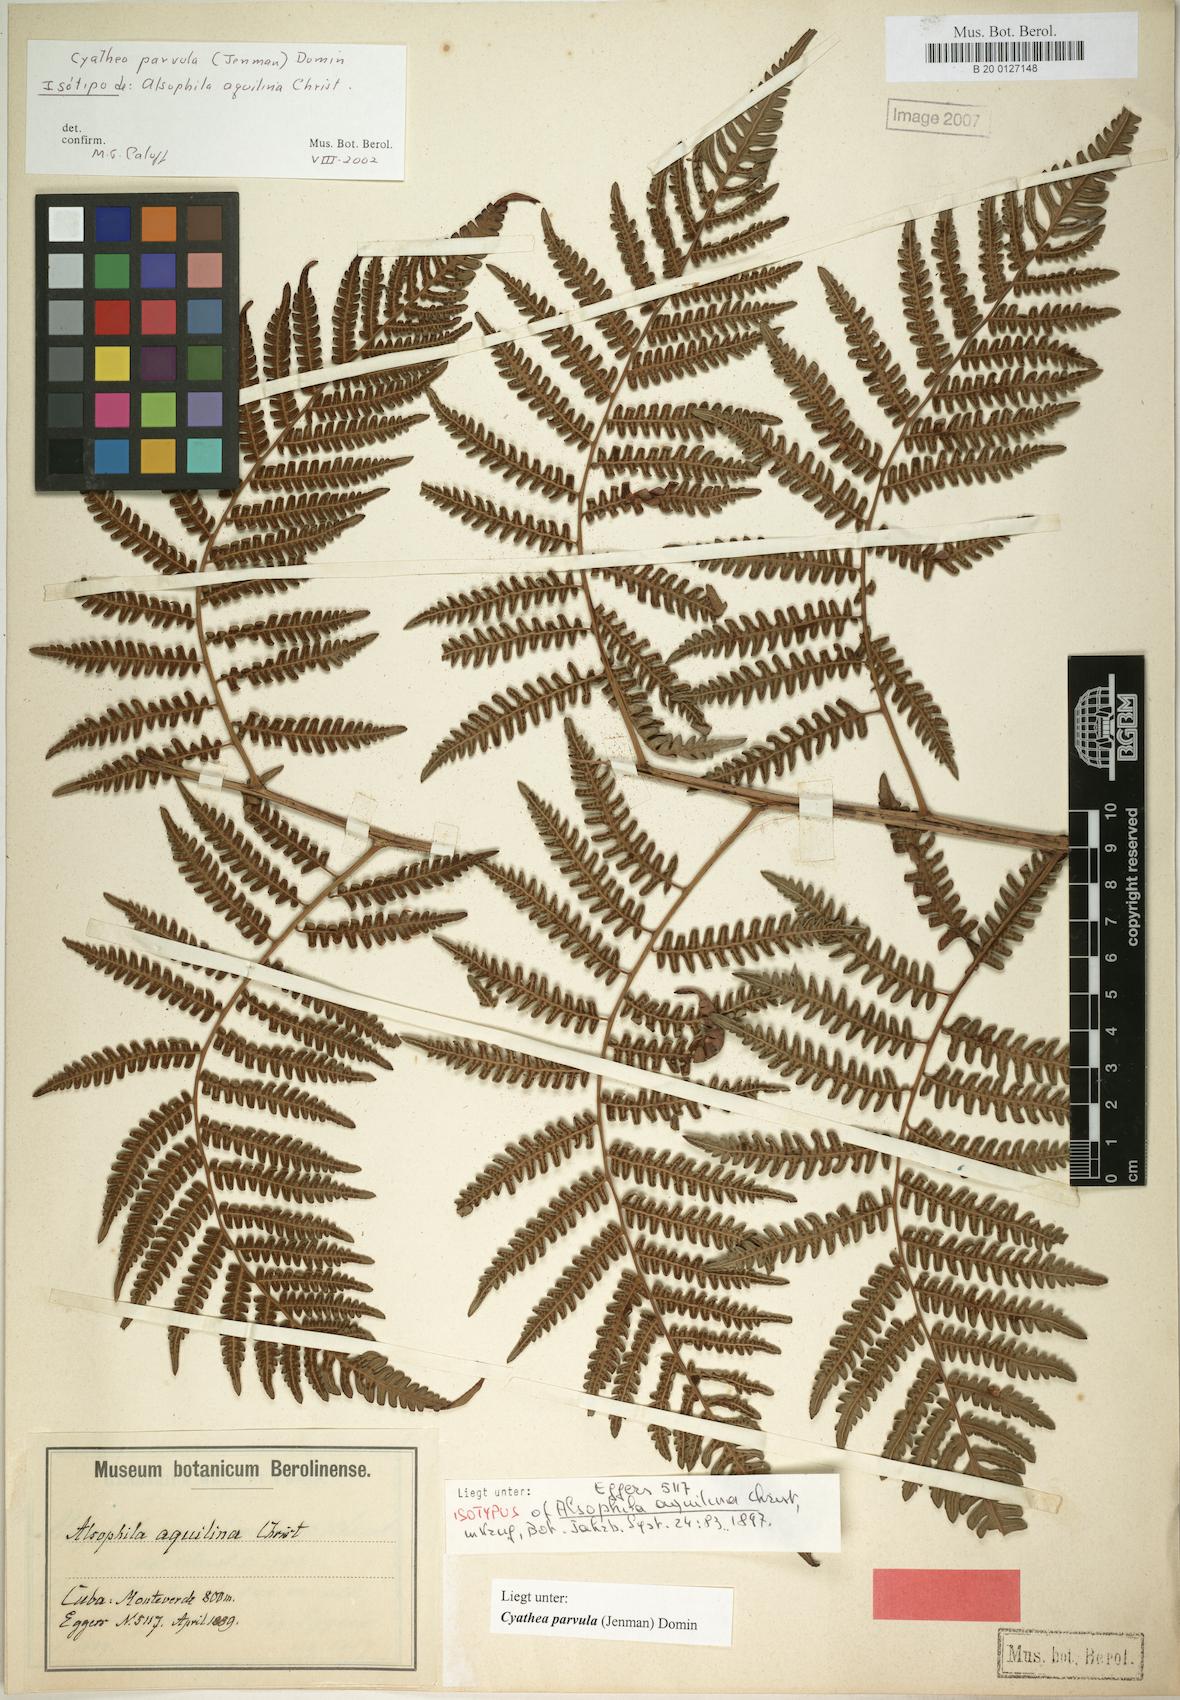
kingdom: Plantae
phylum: Tracheophyta
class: Polypodiopsida
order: Cyatheales
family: Cyatheaceae
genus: Cyathea
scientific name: Cyathea parvula
